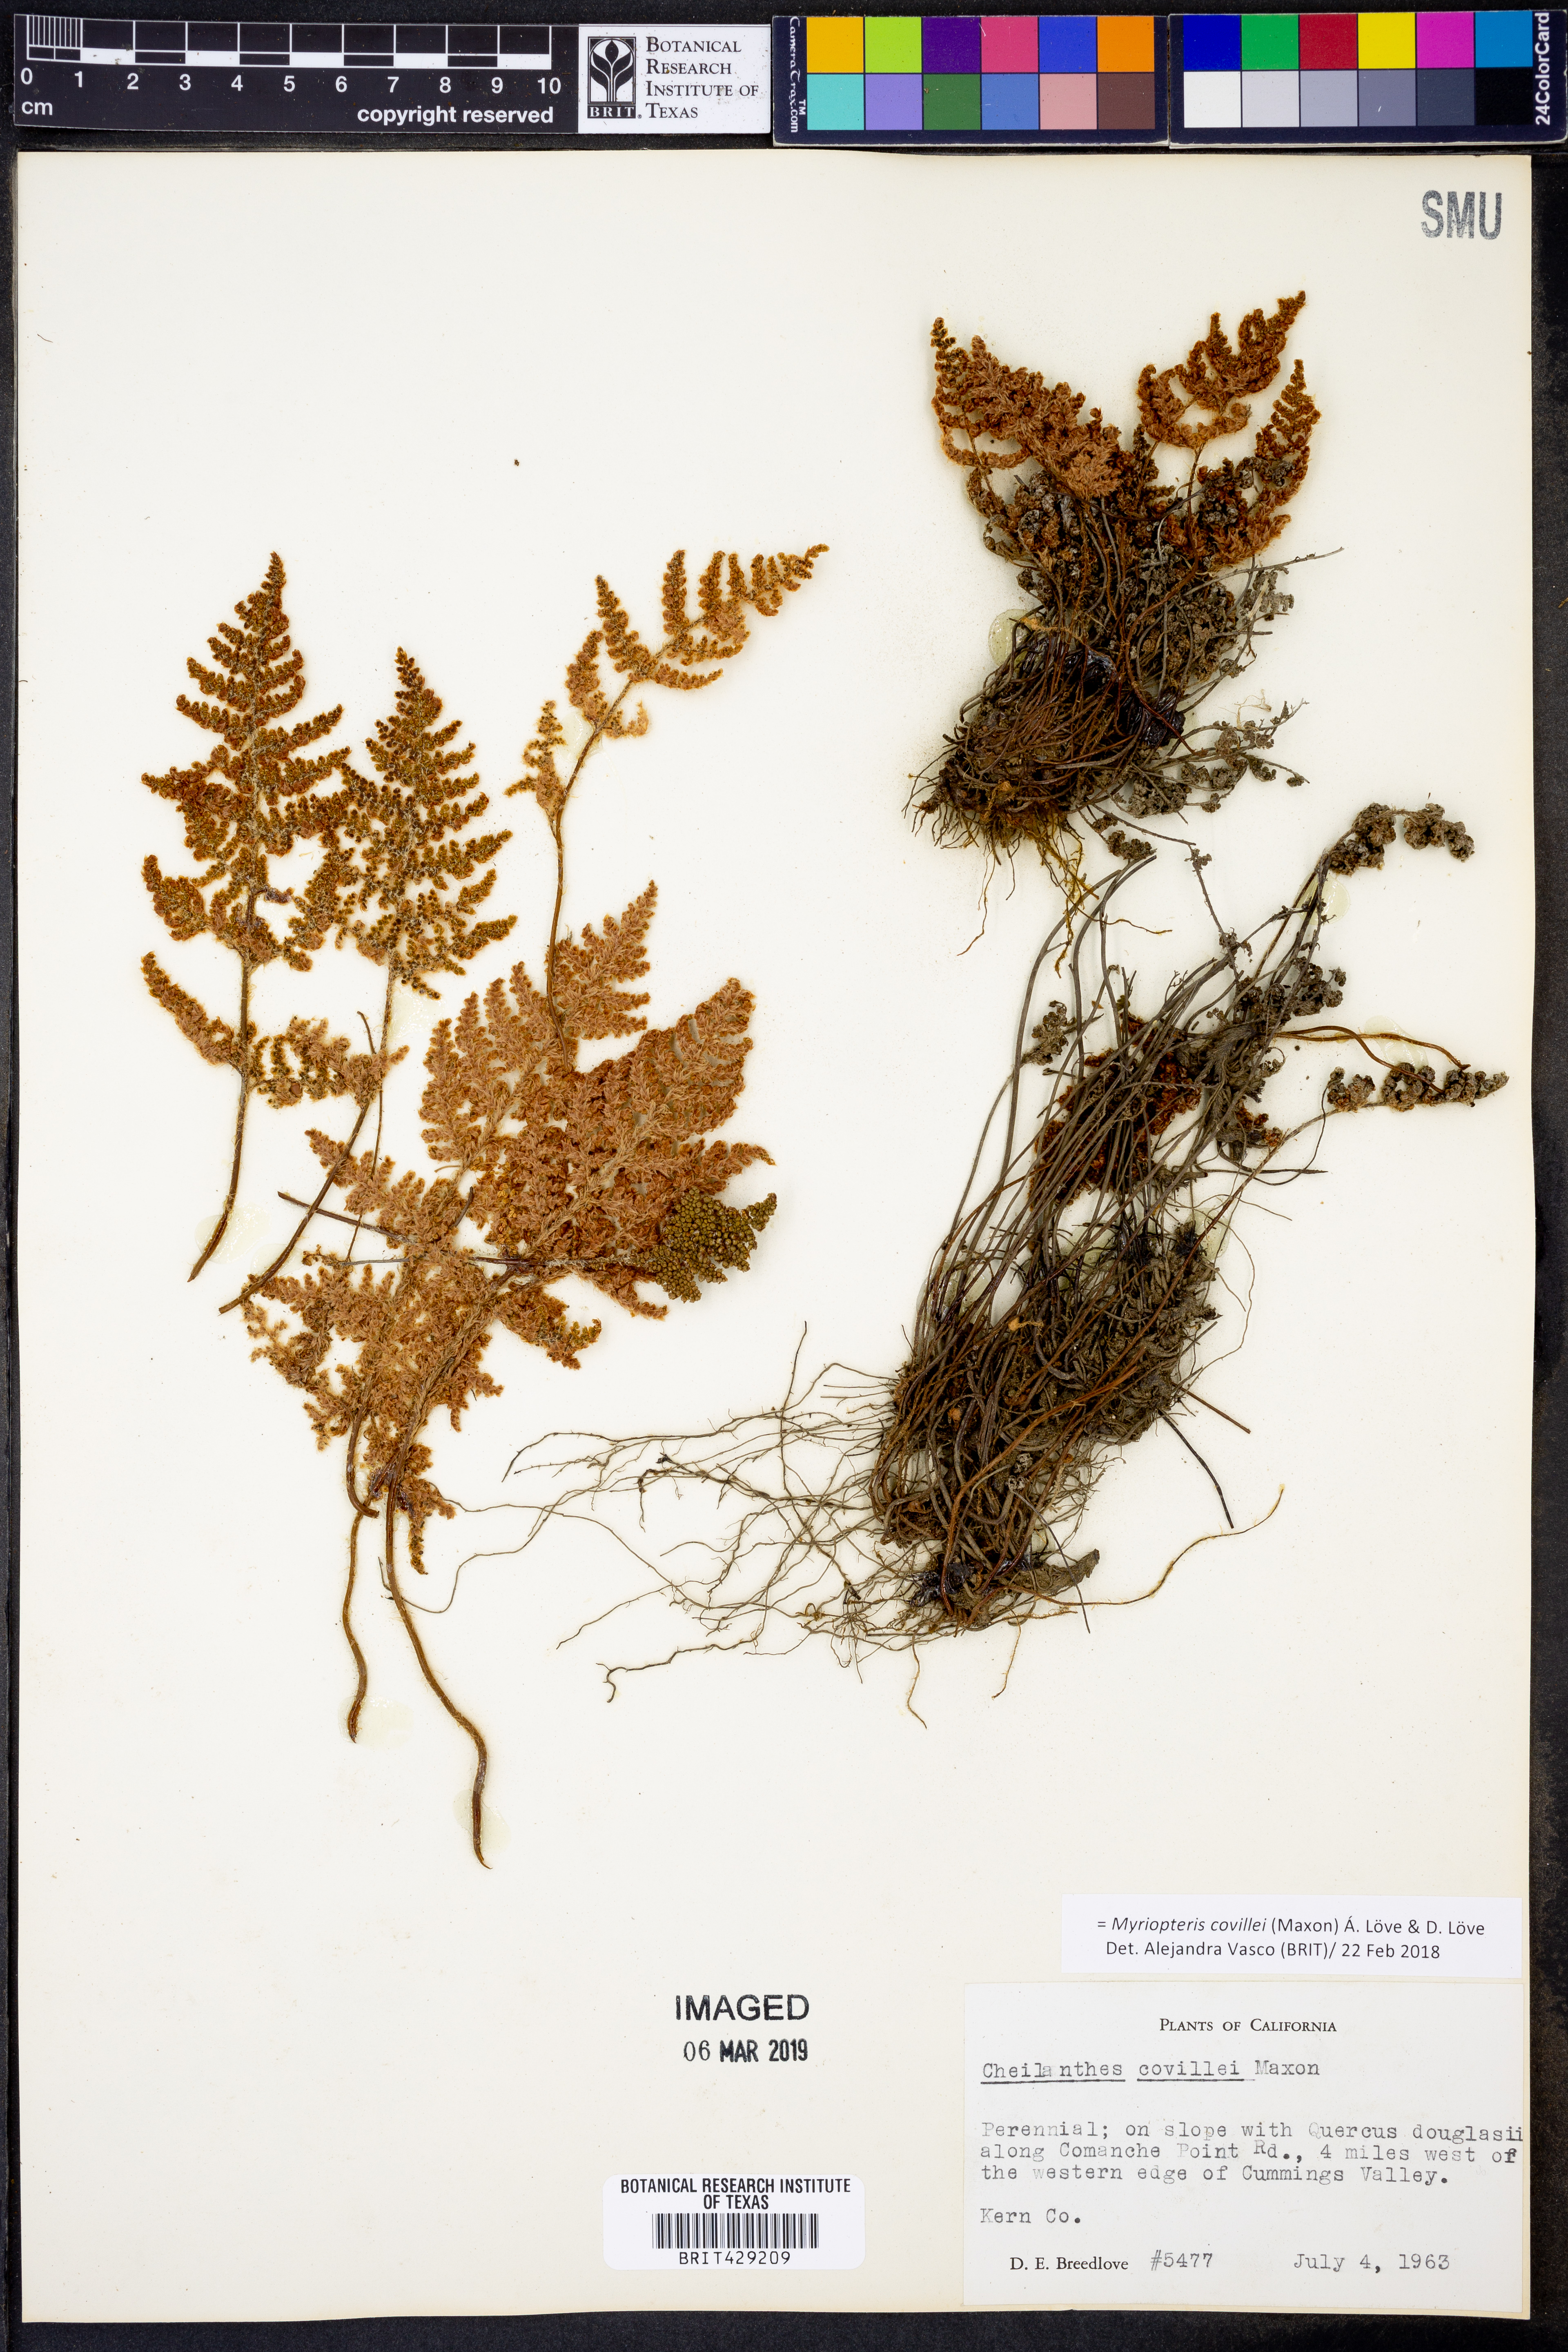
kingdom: Plantae
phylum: Tracheophyta
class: Polypodiopsida
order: Polypodiales
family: Pteridaceae
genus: Myriopteris
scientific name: Myriopteris covillei
